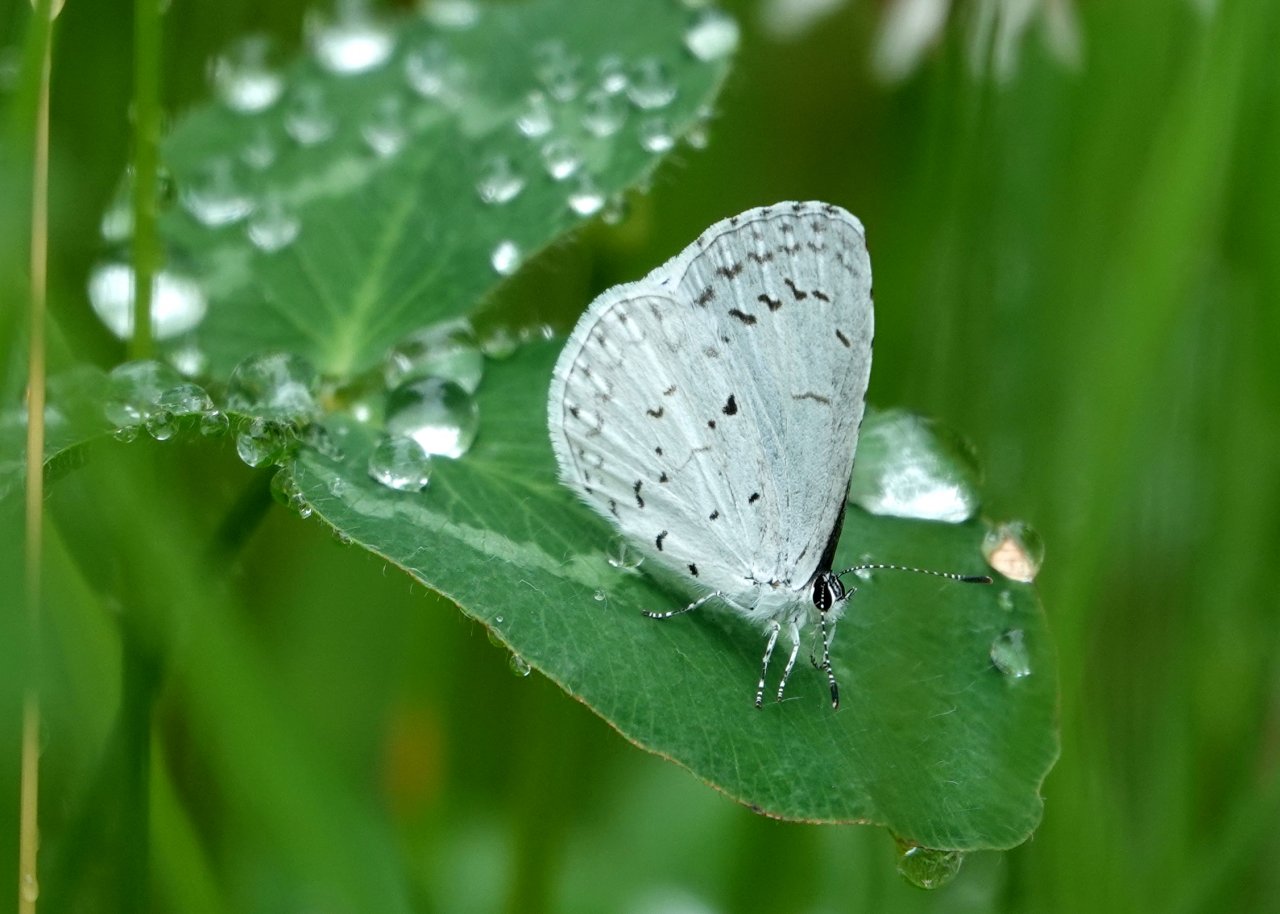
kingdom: Animalia
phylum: Arthropoda
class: Insecta
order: Lepidoptera
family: Lycaenidae
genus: Celastrina
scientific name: Celastrina ladon
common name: Spring Azure
